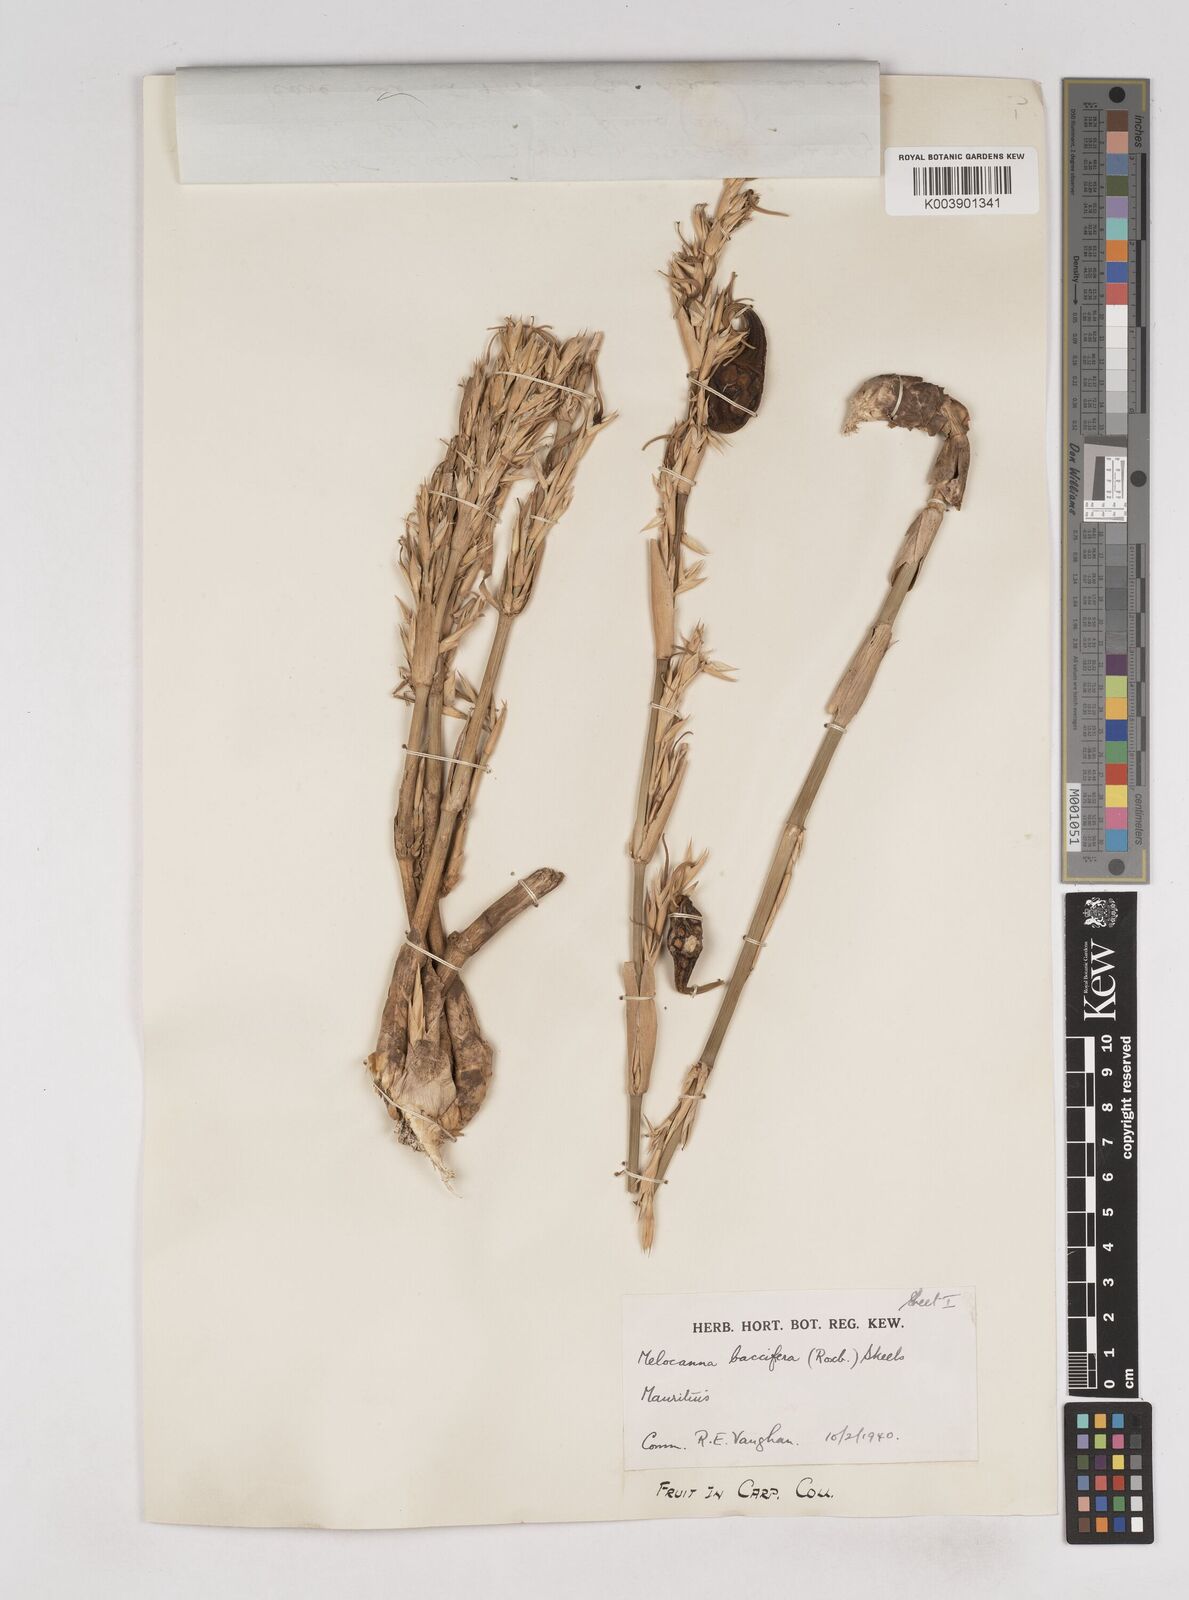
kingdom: Plantae
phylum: Tracheophyta
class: Liliopsida
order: Poales
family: Poaceae
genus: Melocanna
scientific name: Melocanna baccifera
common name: Berry bamboo
